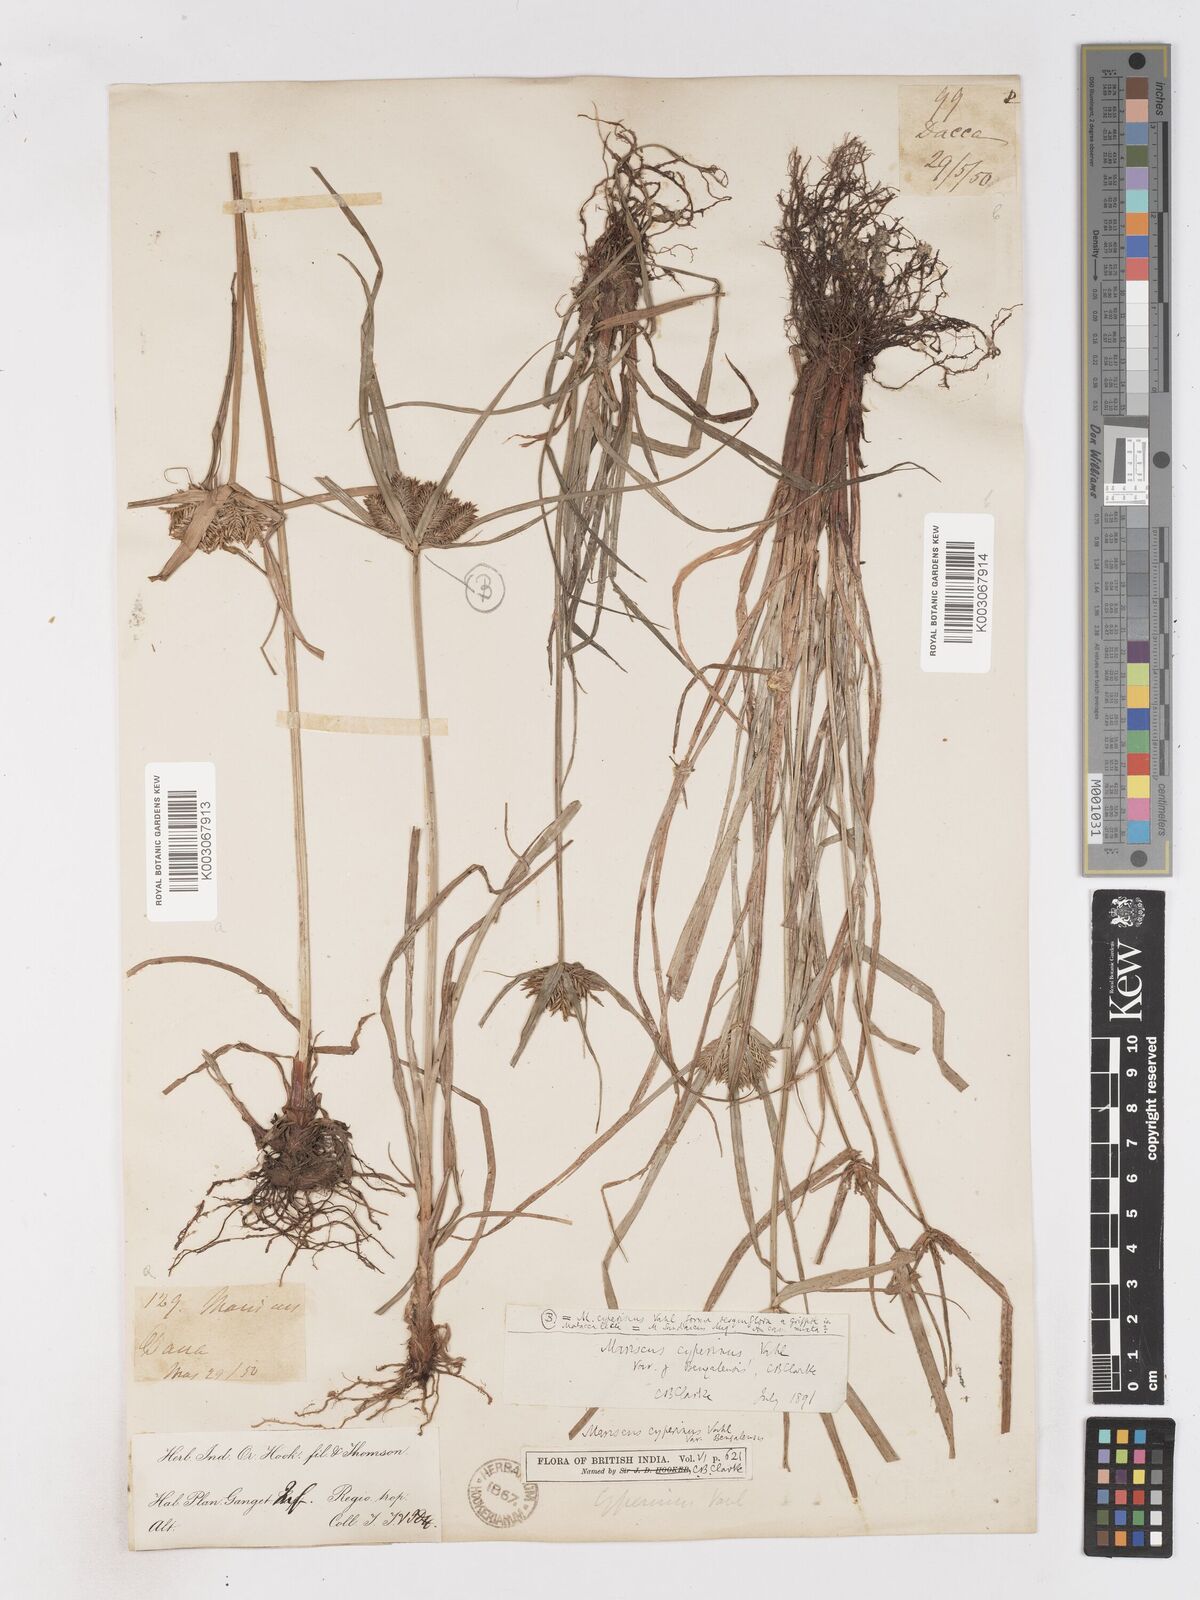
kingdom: Plantae
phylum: Tracheophyta
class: Liliopsida
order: Poales
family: Cyperaceae
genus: Cyperus
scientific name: Cyperus cyperinus
